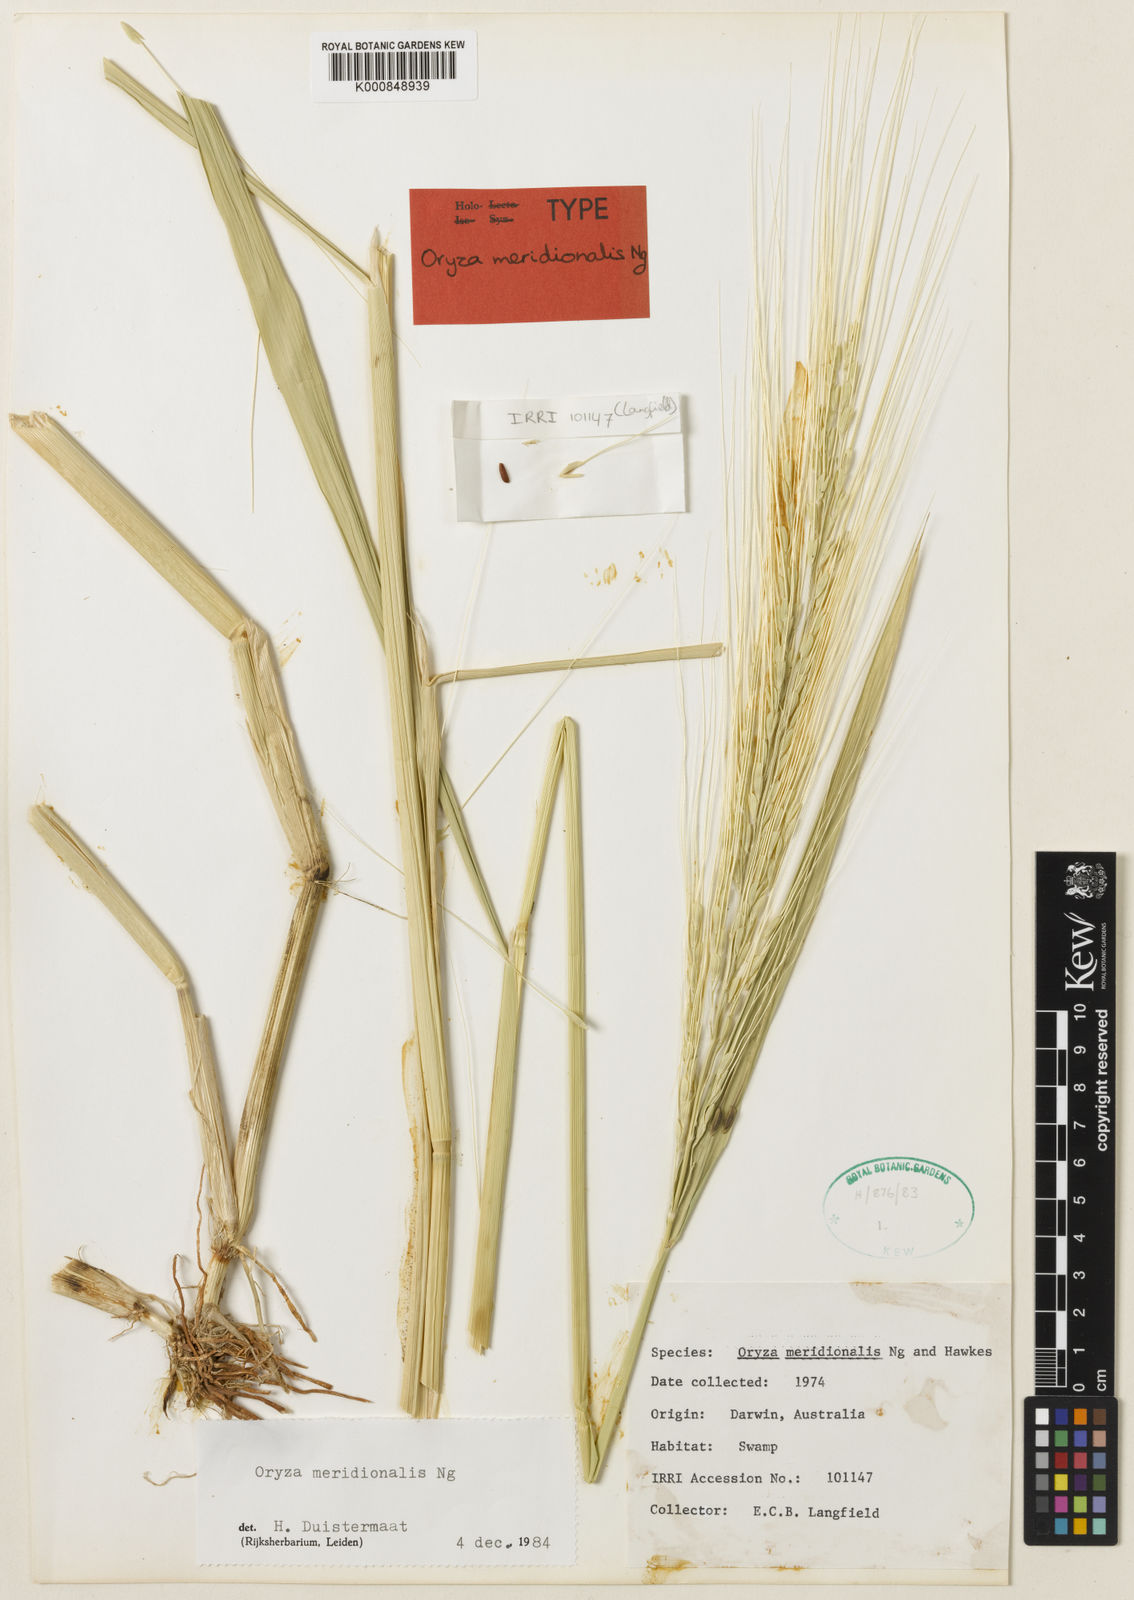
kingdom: Plantae
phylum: Tracheophyta
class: Liliopsida
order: Poales
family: Poaceae
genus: Oryza
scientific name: Oryza rufipogon
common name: Red rice
